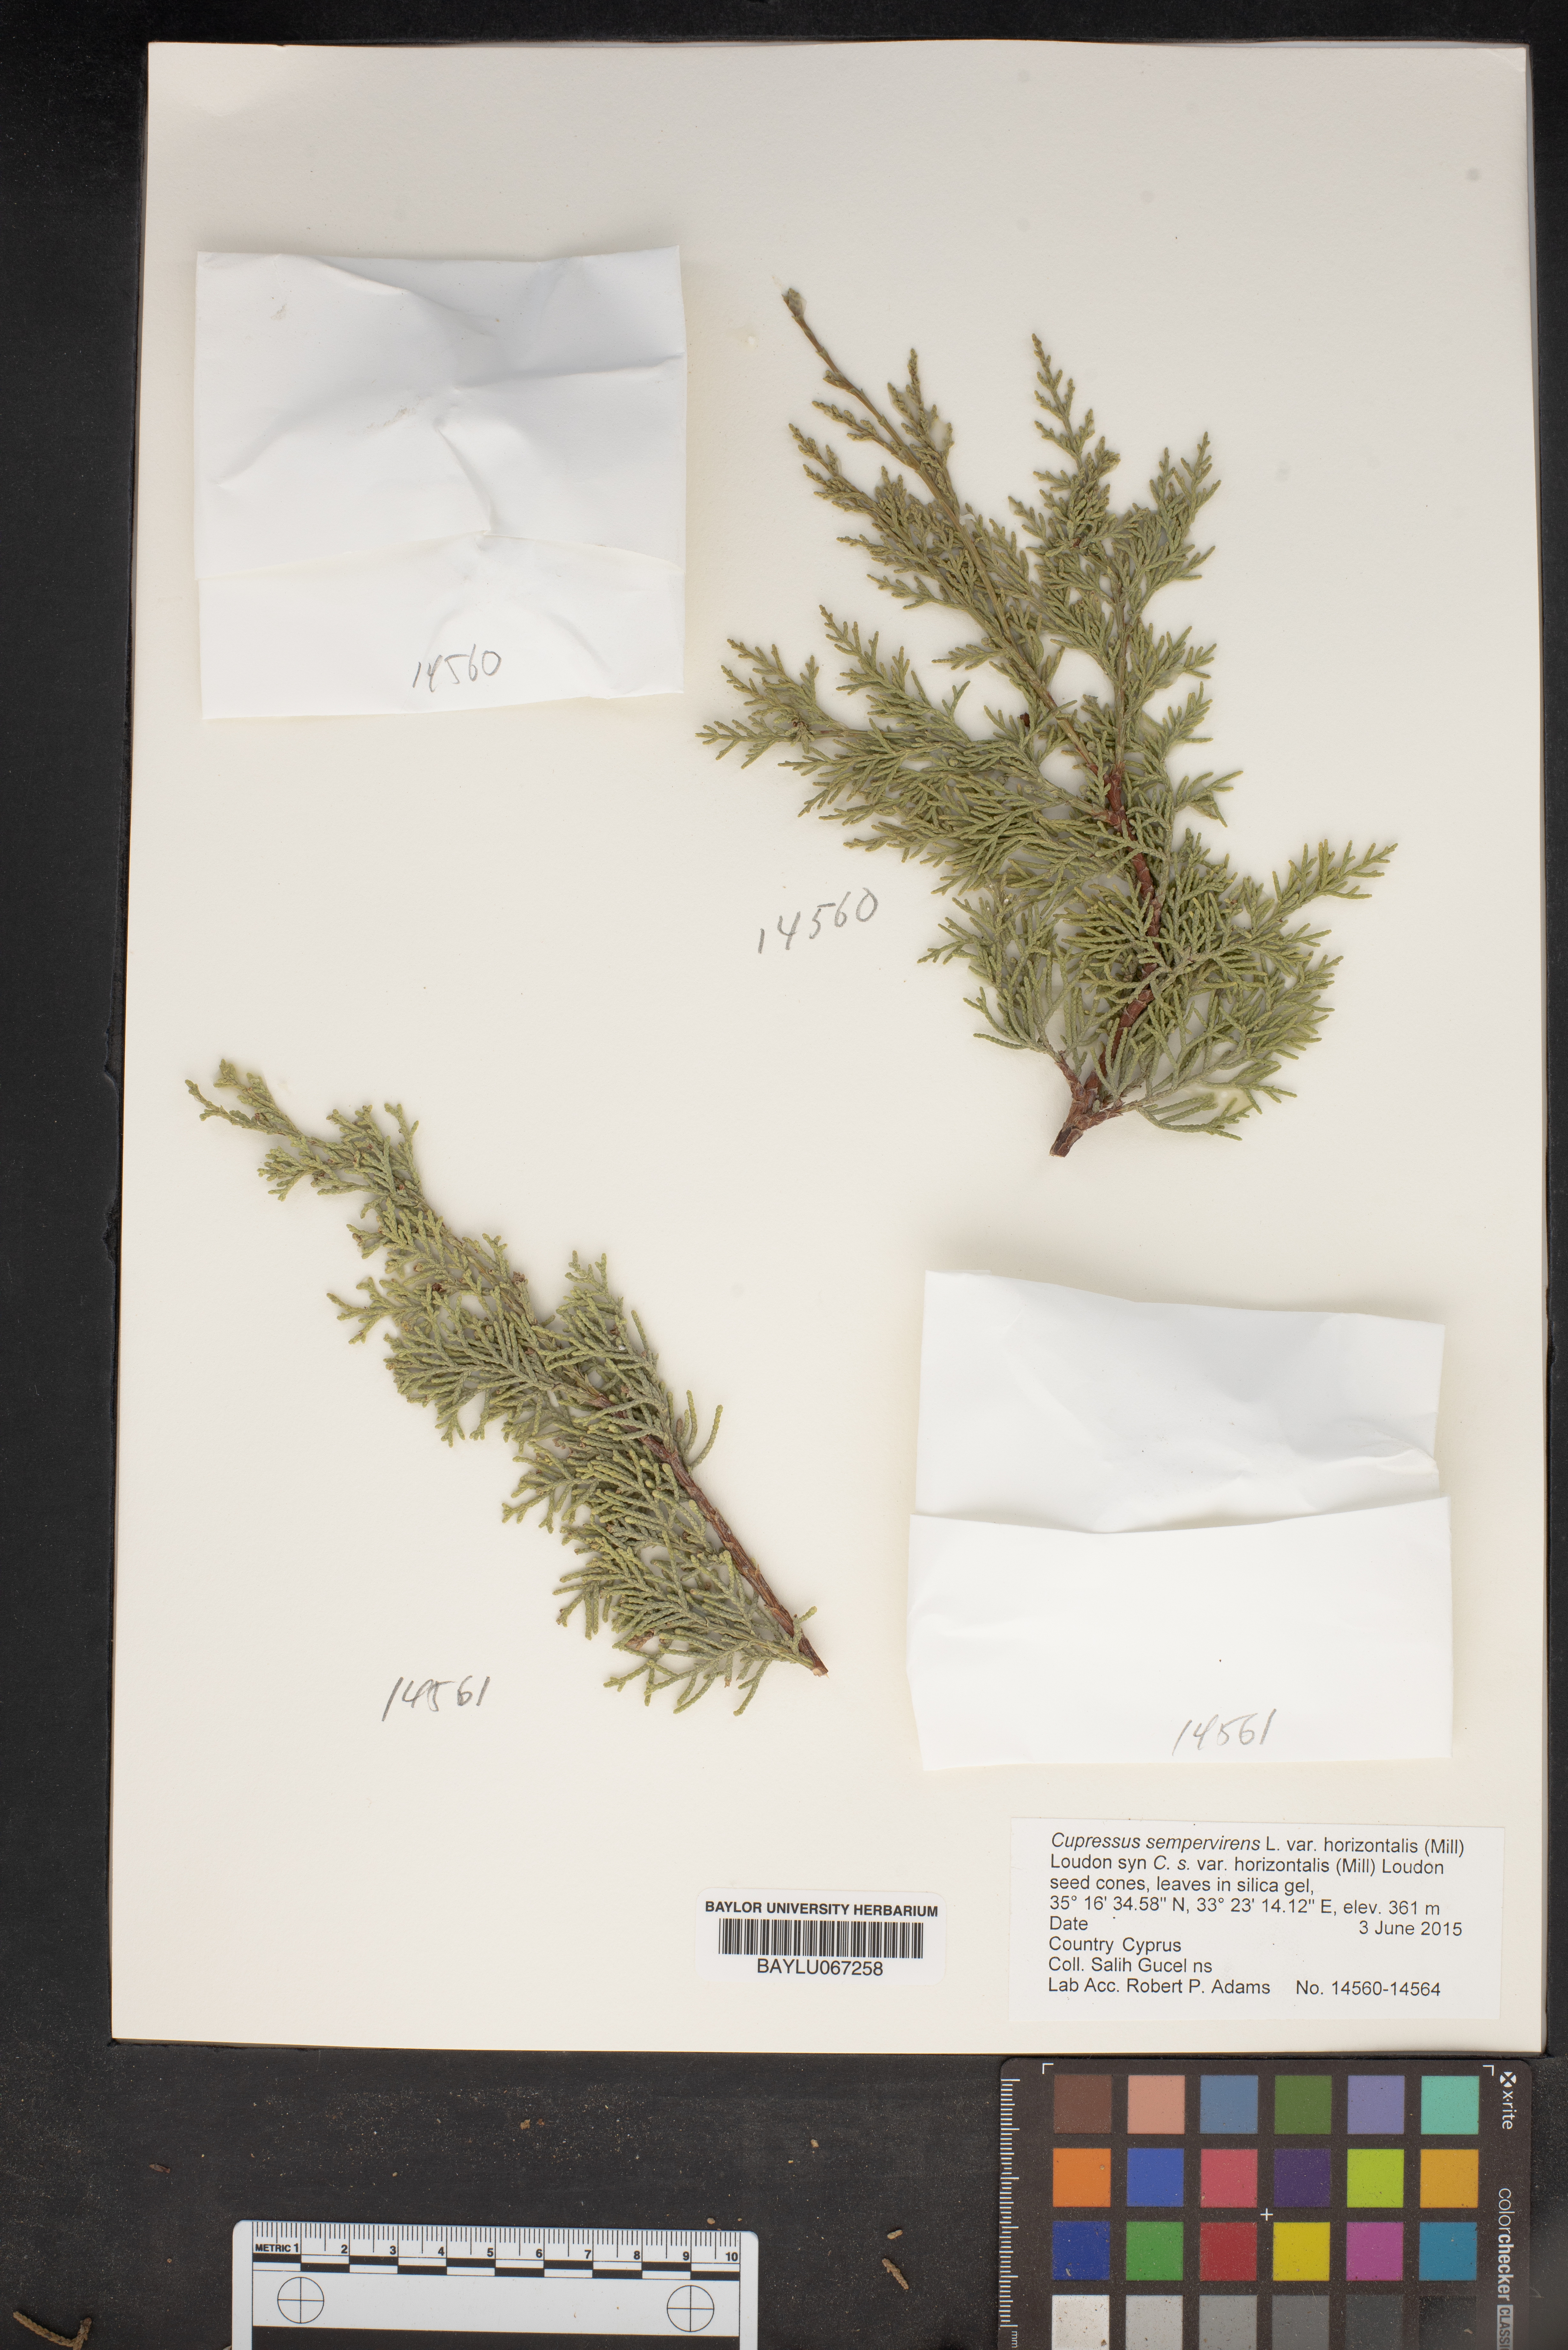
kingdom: Plantae
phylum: Tracheophyta
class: Pinopsida
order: Pinales
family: Cupressaceae
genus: Cupressus
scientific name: Cupressus sempervirens
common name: Italian cypress
